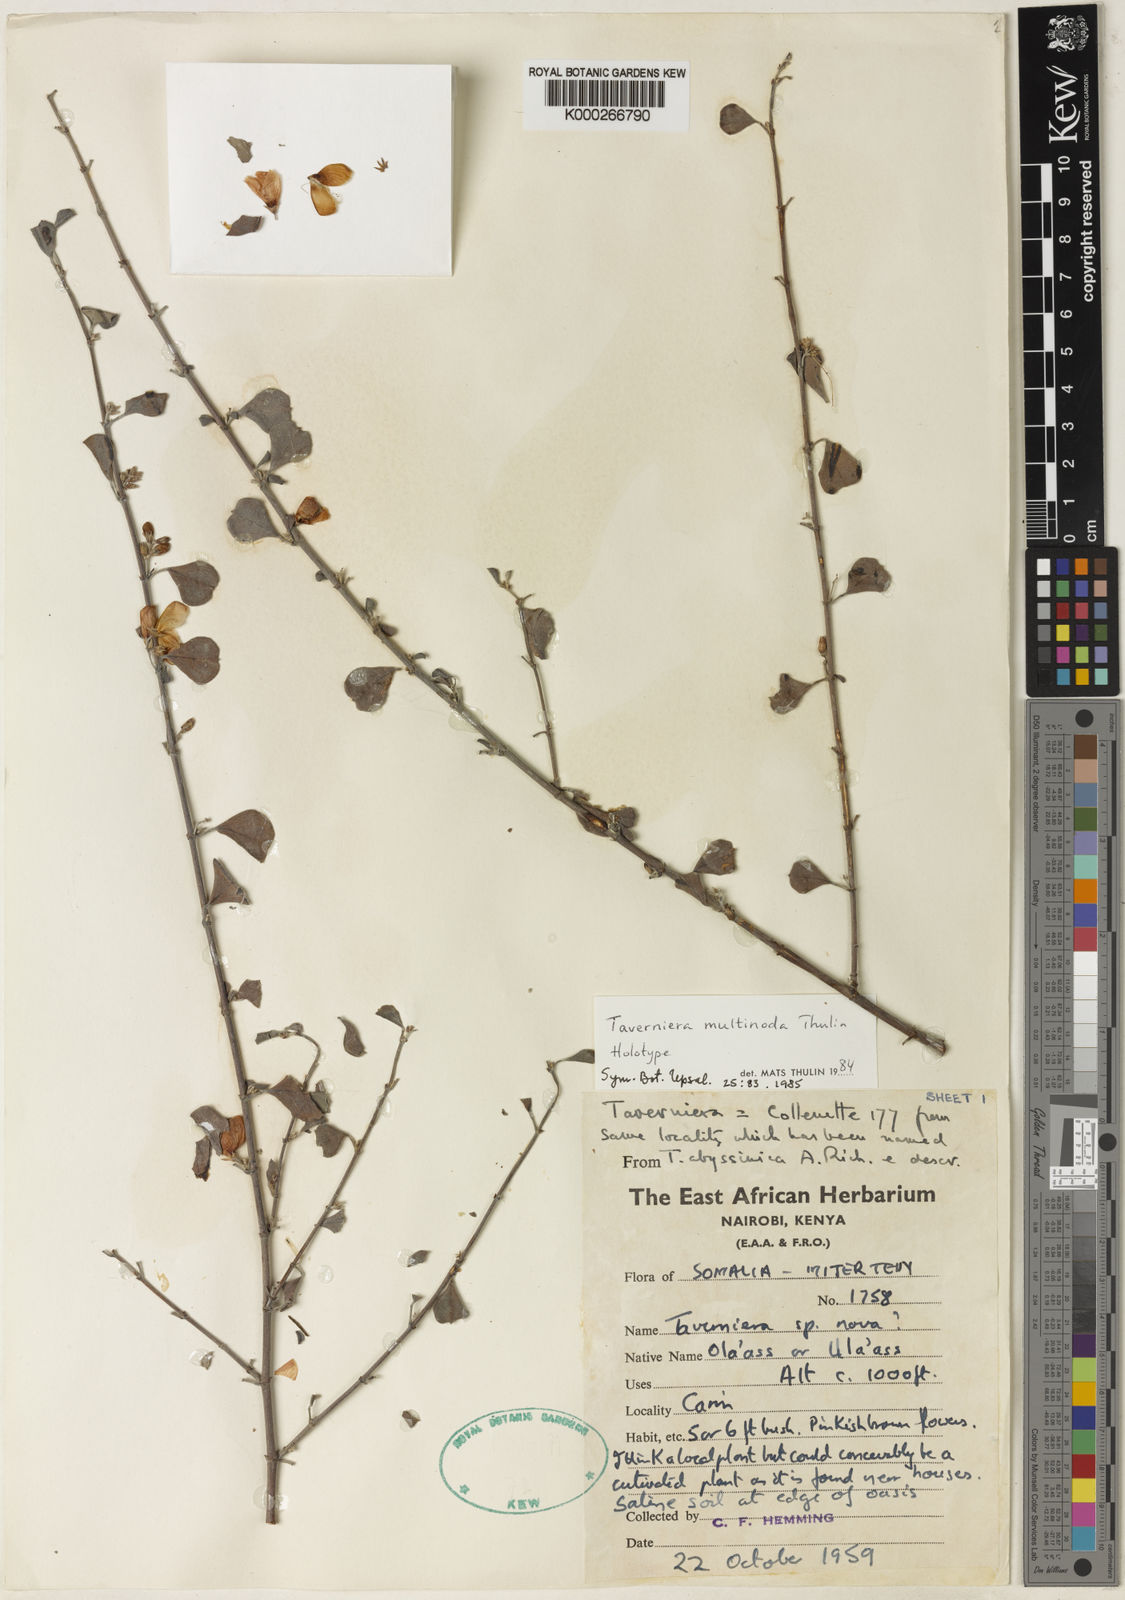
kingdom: Plantae
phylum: Tracheophyta
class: Magnoliopsida
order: Fabales
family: Fabaceae
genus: Taverniera
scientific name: Taverniera multinoda
